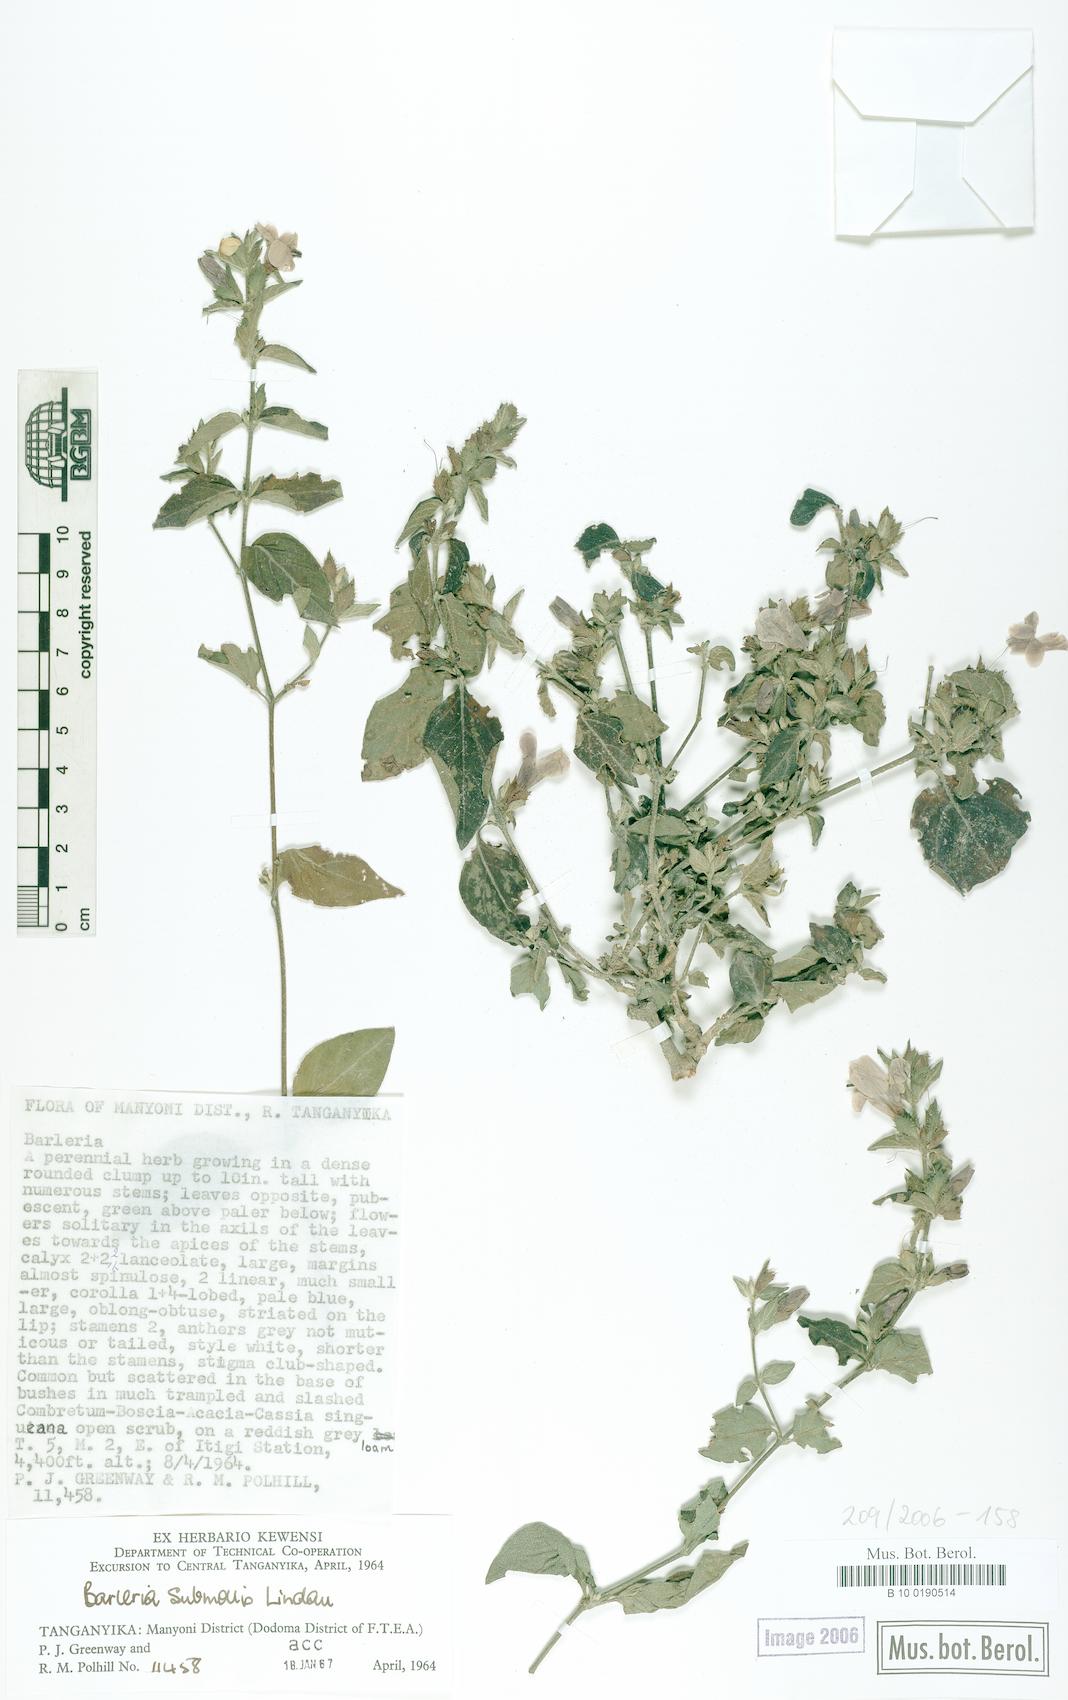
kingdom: Plantae
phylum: Tracheophyta
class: Magnoliopsida
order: Lamiales
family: Acanthaceae
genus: Barleria
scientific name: Barleria ventricosa
